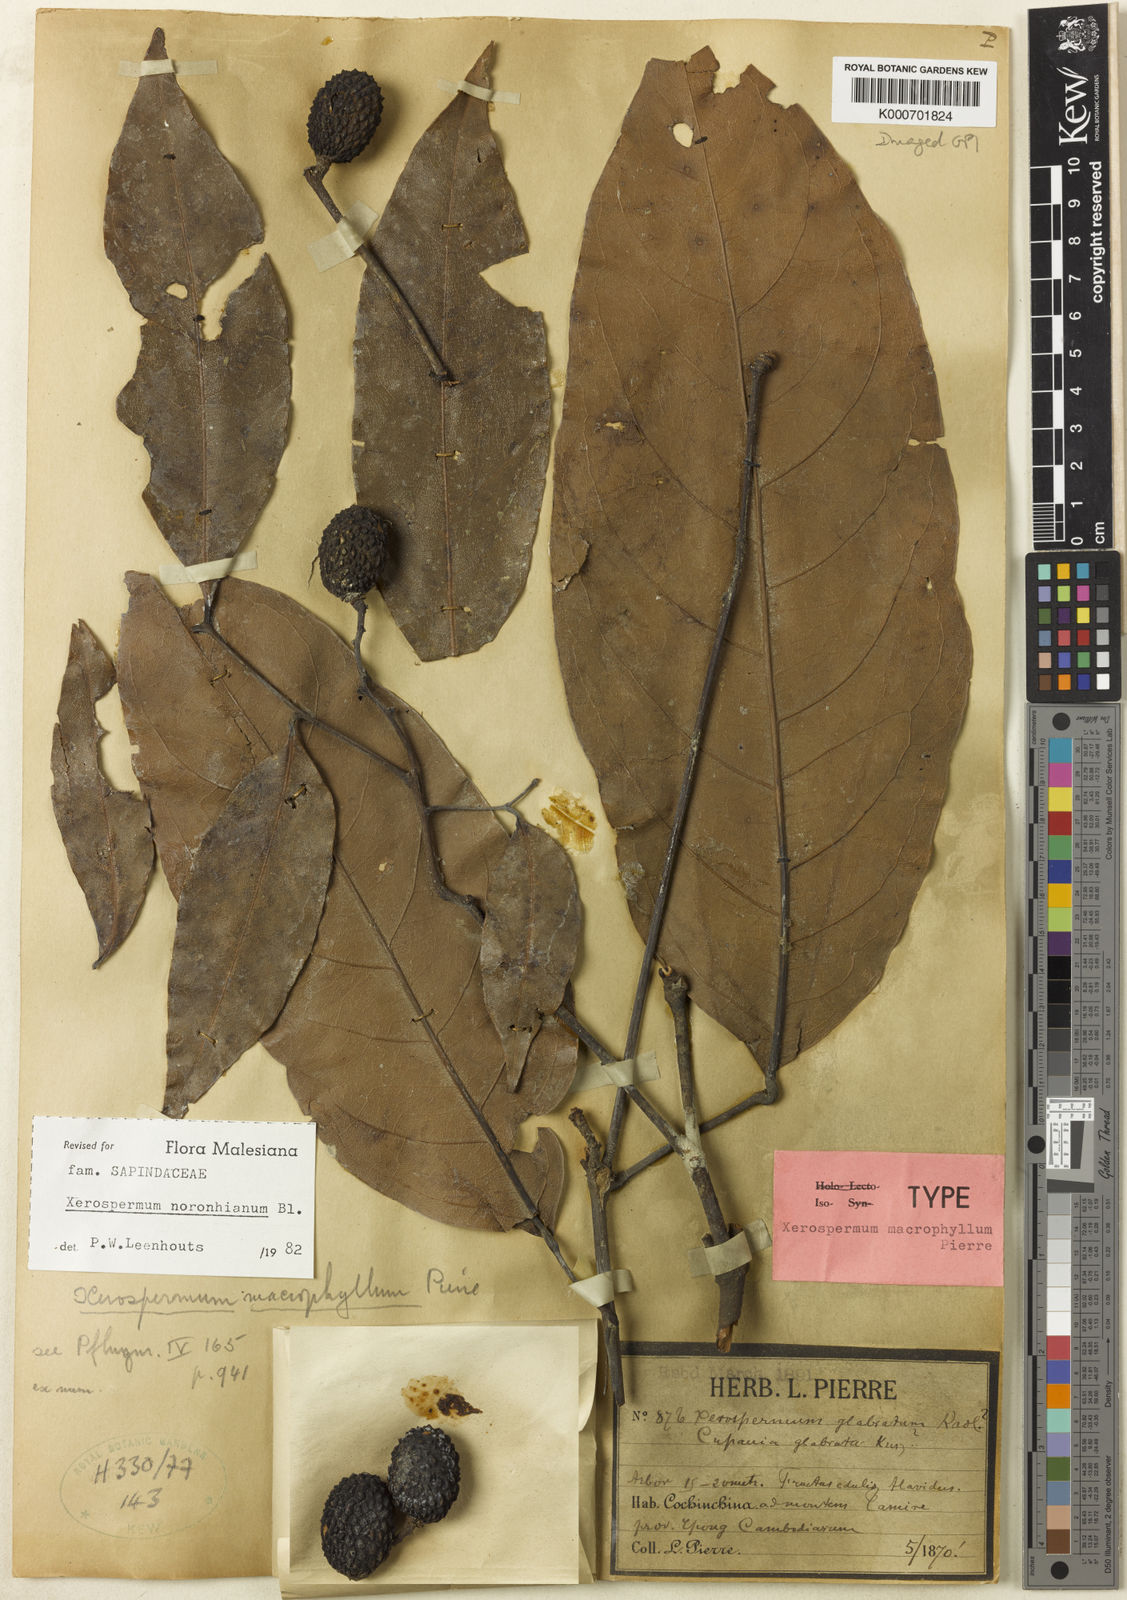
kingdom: Plantae
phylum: Tracheophyta
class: Magnoliopsida
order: Sapindales
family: Sapindaceae
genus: Xerospermum
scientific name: Xerospermum noronhianum
